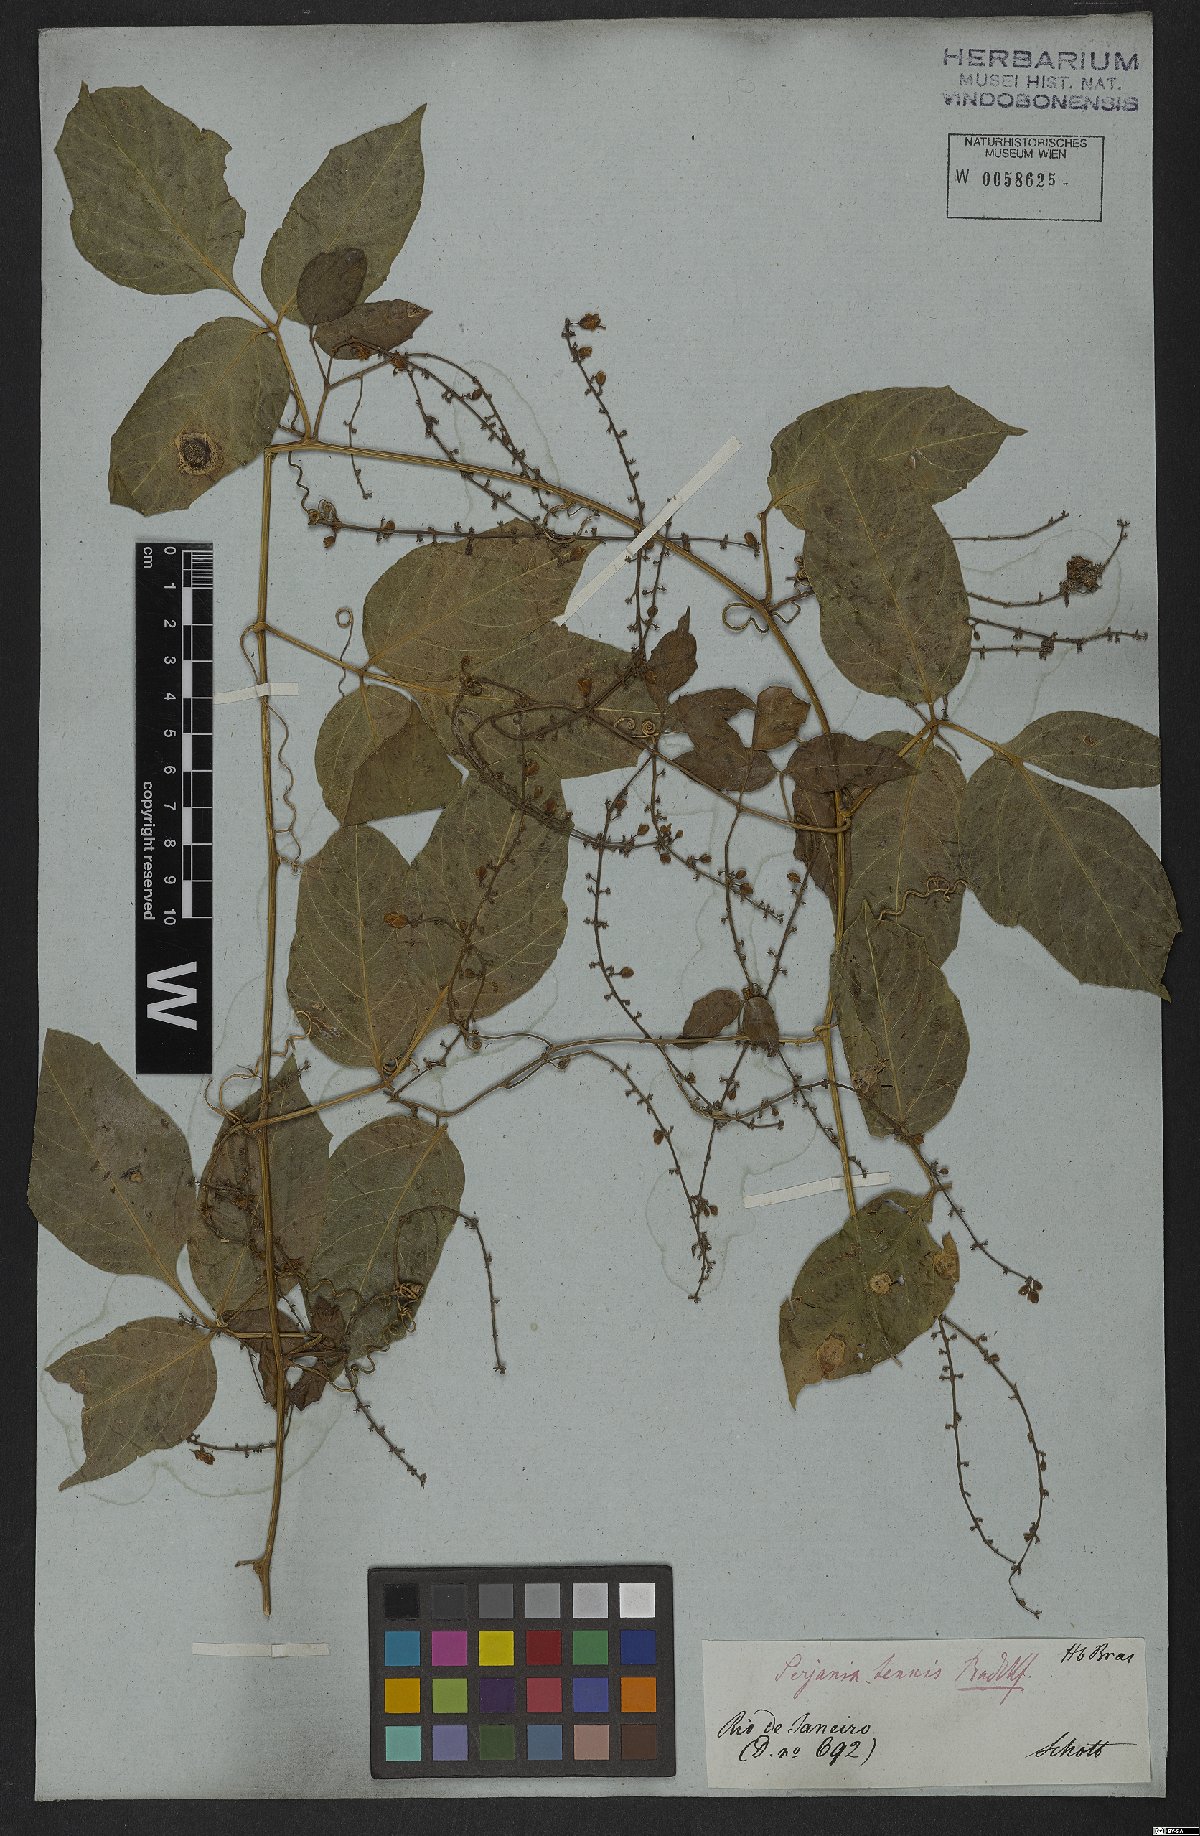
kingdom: Plantae
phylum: Tracheophyta
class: Magnoliopsida
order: Sapindales
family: Sapindaceae
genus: Serjania
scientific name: Serjania tenuis
